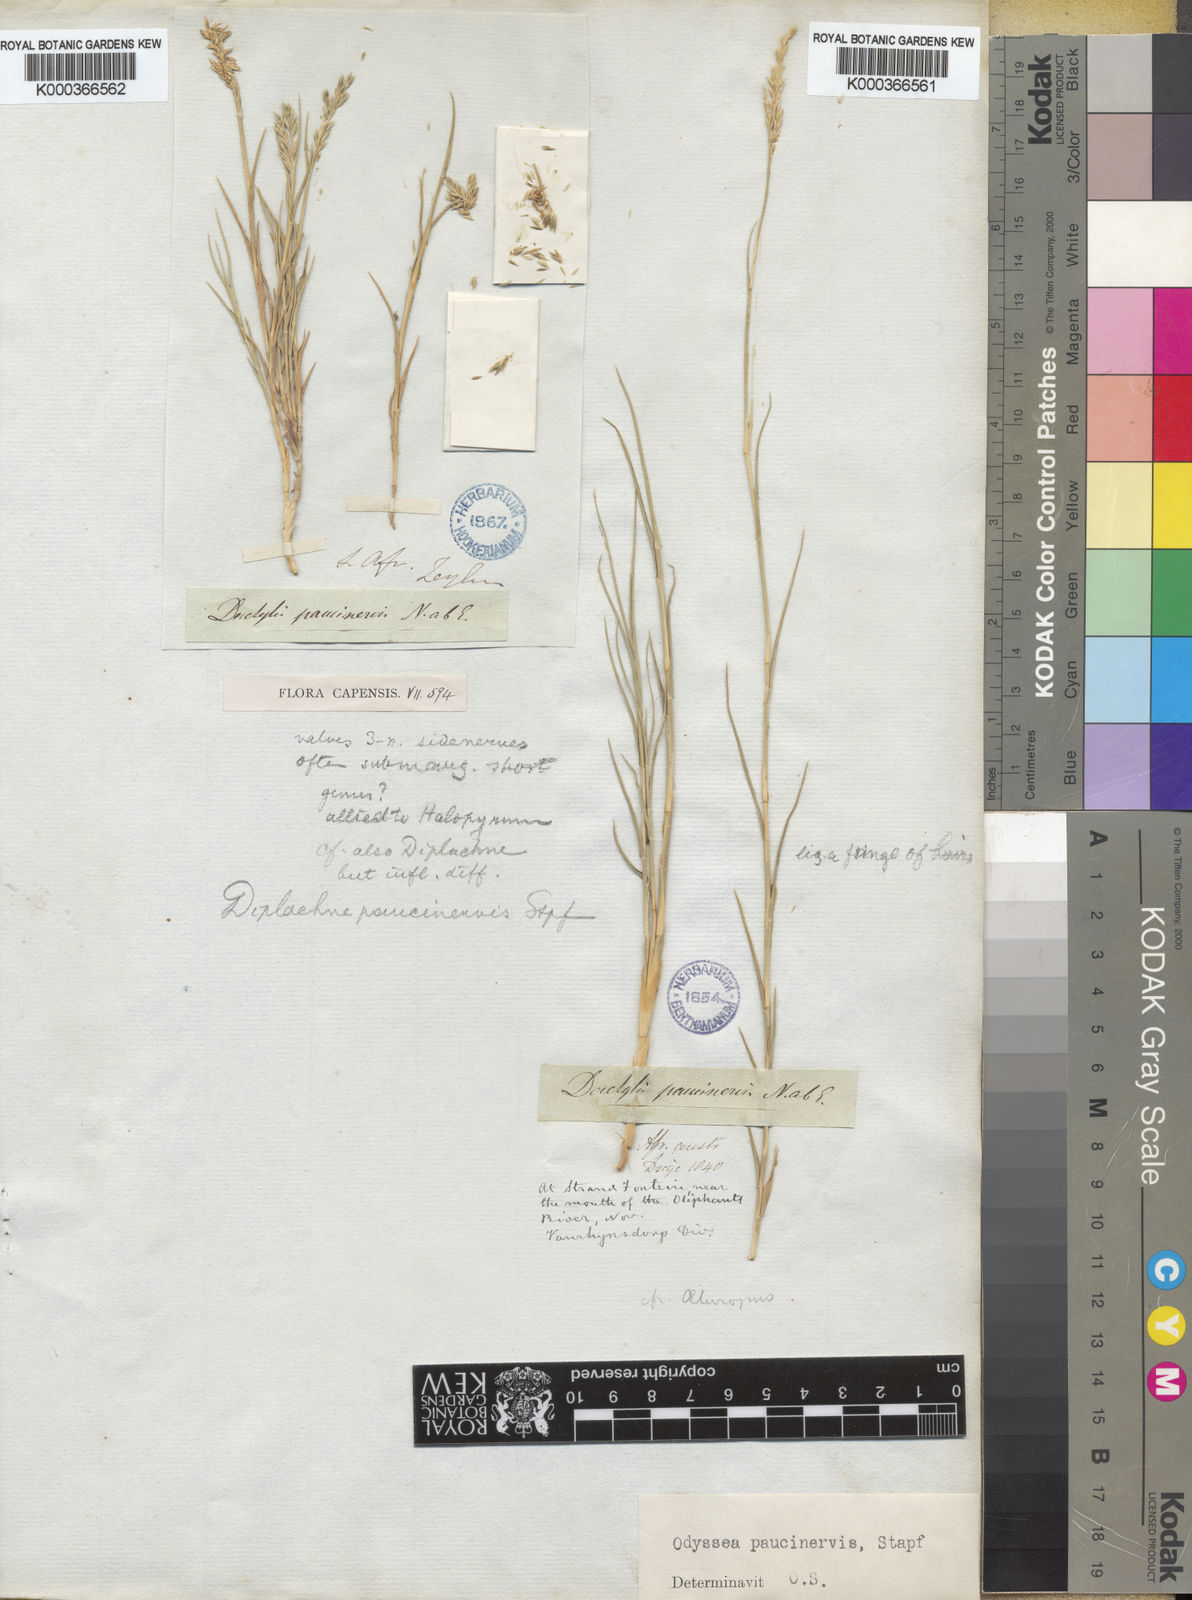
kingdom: Plantae
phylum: Tracheophyta
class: Liliopsida
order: Poales
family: Poaceae
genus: Odyssea
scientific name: Odyssea paucinervis
